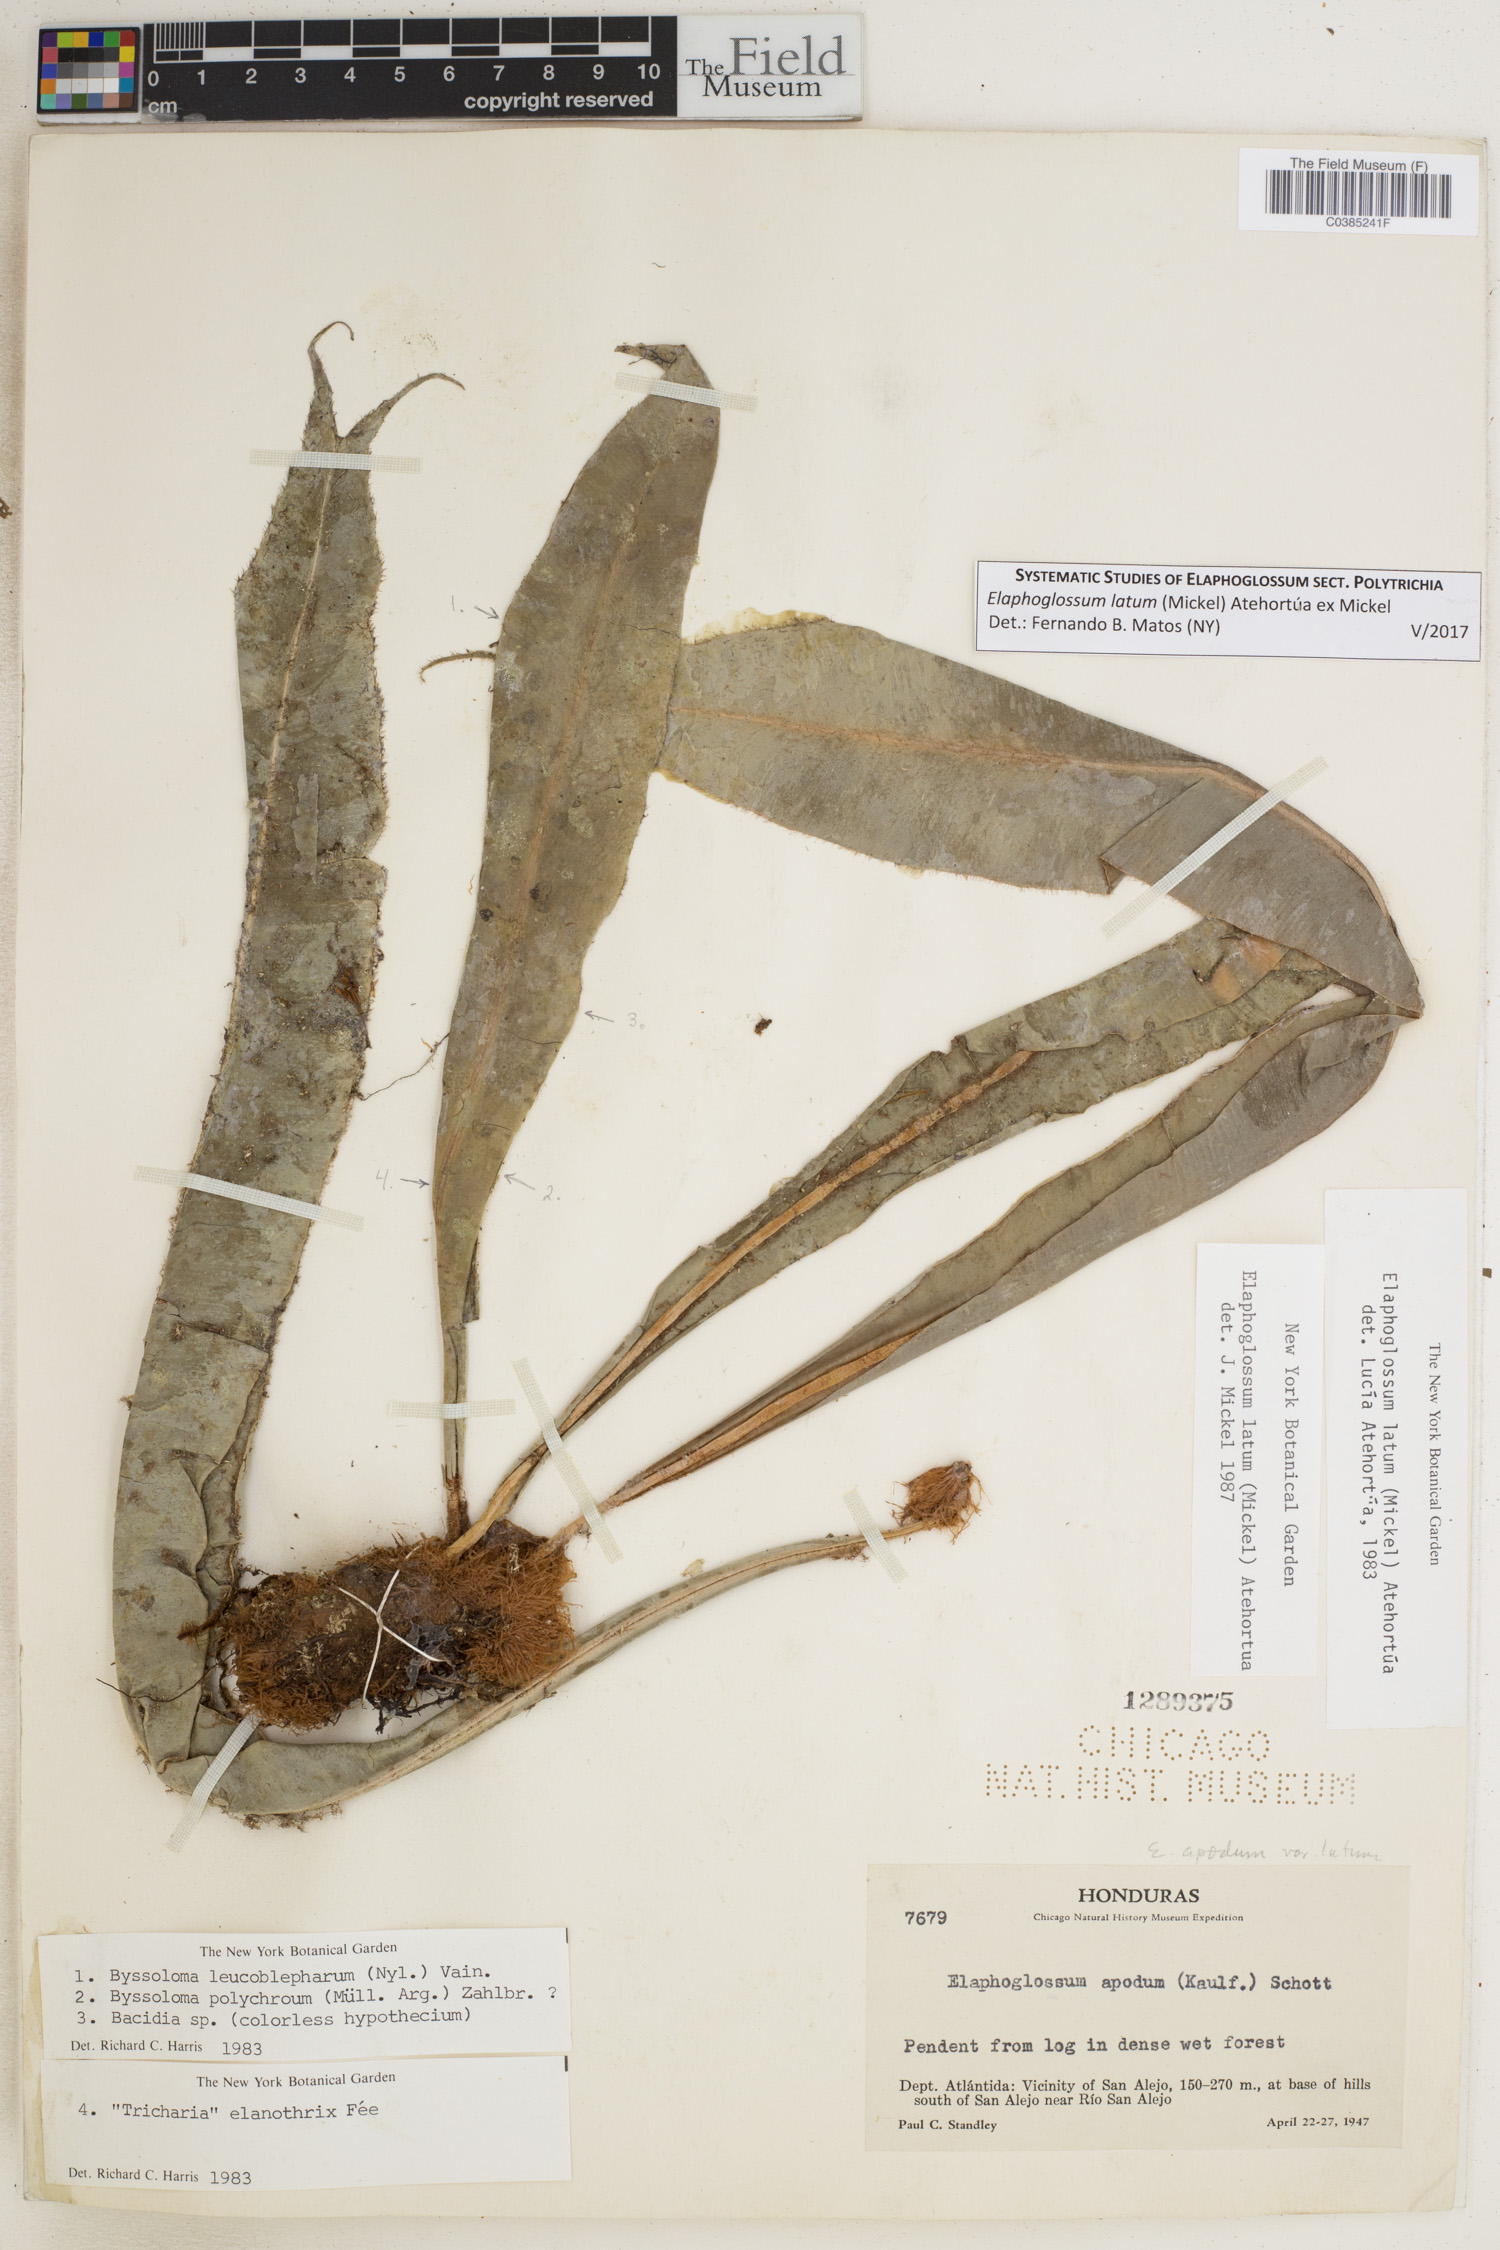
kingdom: Plantae
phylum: Tracheophyta
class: Polypodiopsida
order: Polypodiales
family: Dryopteridaceae
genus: Elaphoglossum
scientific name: Elaphoglossum latum
